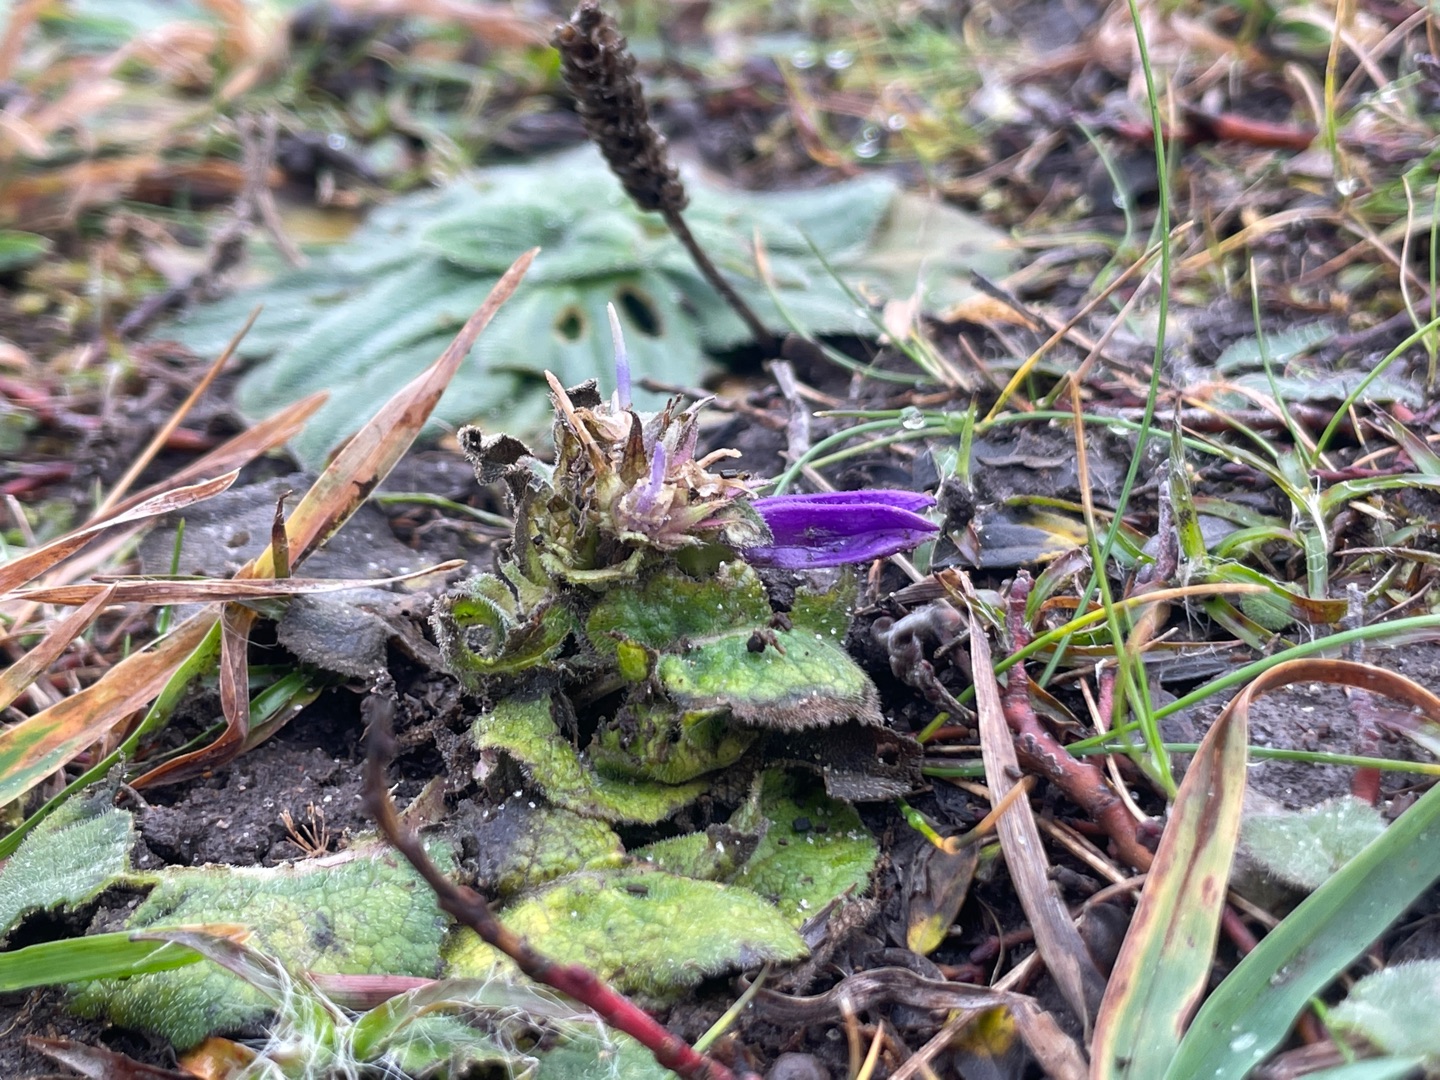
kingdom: Plantae
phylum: Tracheophyta
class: Magnoliopsida
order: Asterales
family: Campanulaceae
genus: Campanula
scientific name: Campanula glomerata
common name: Filtet klokke
